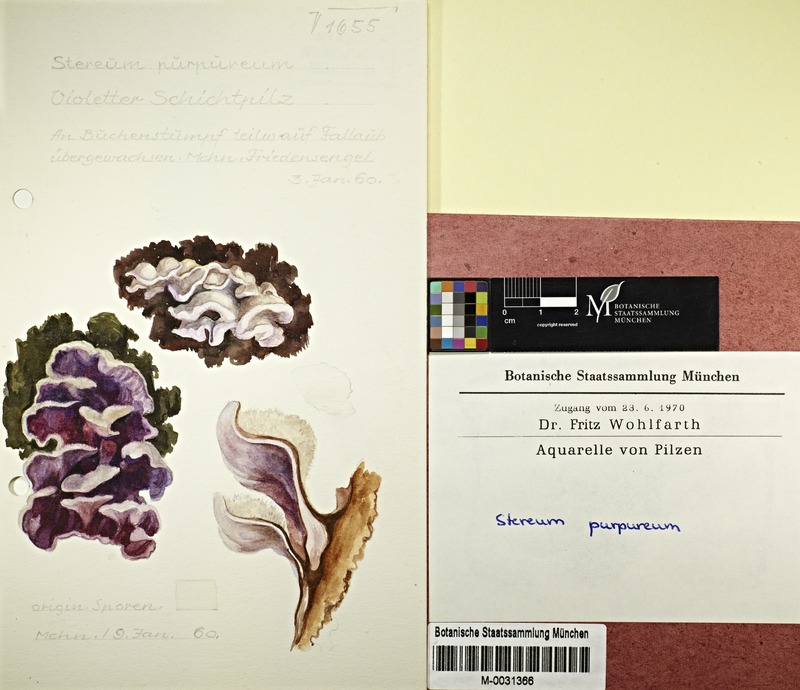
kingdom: Fungi
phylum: Basidiomycota
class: Agaricomycetes
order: Agaricales
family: Cyphellaceae
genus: Chondrostereum
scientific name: Chondrostereum purpureum
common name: Silver leaf disease
